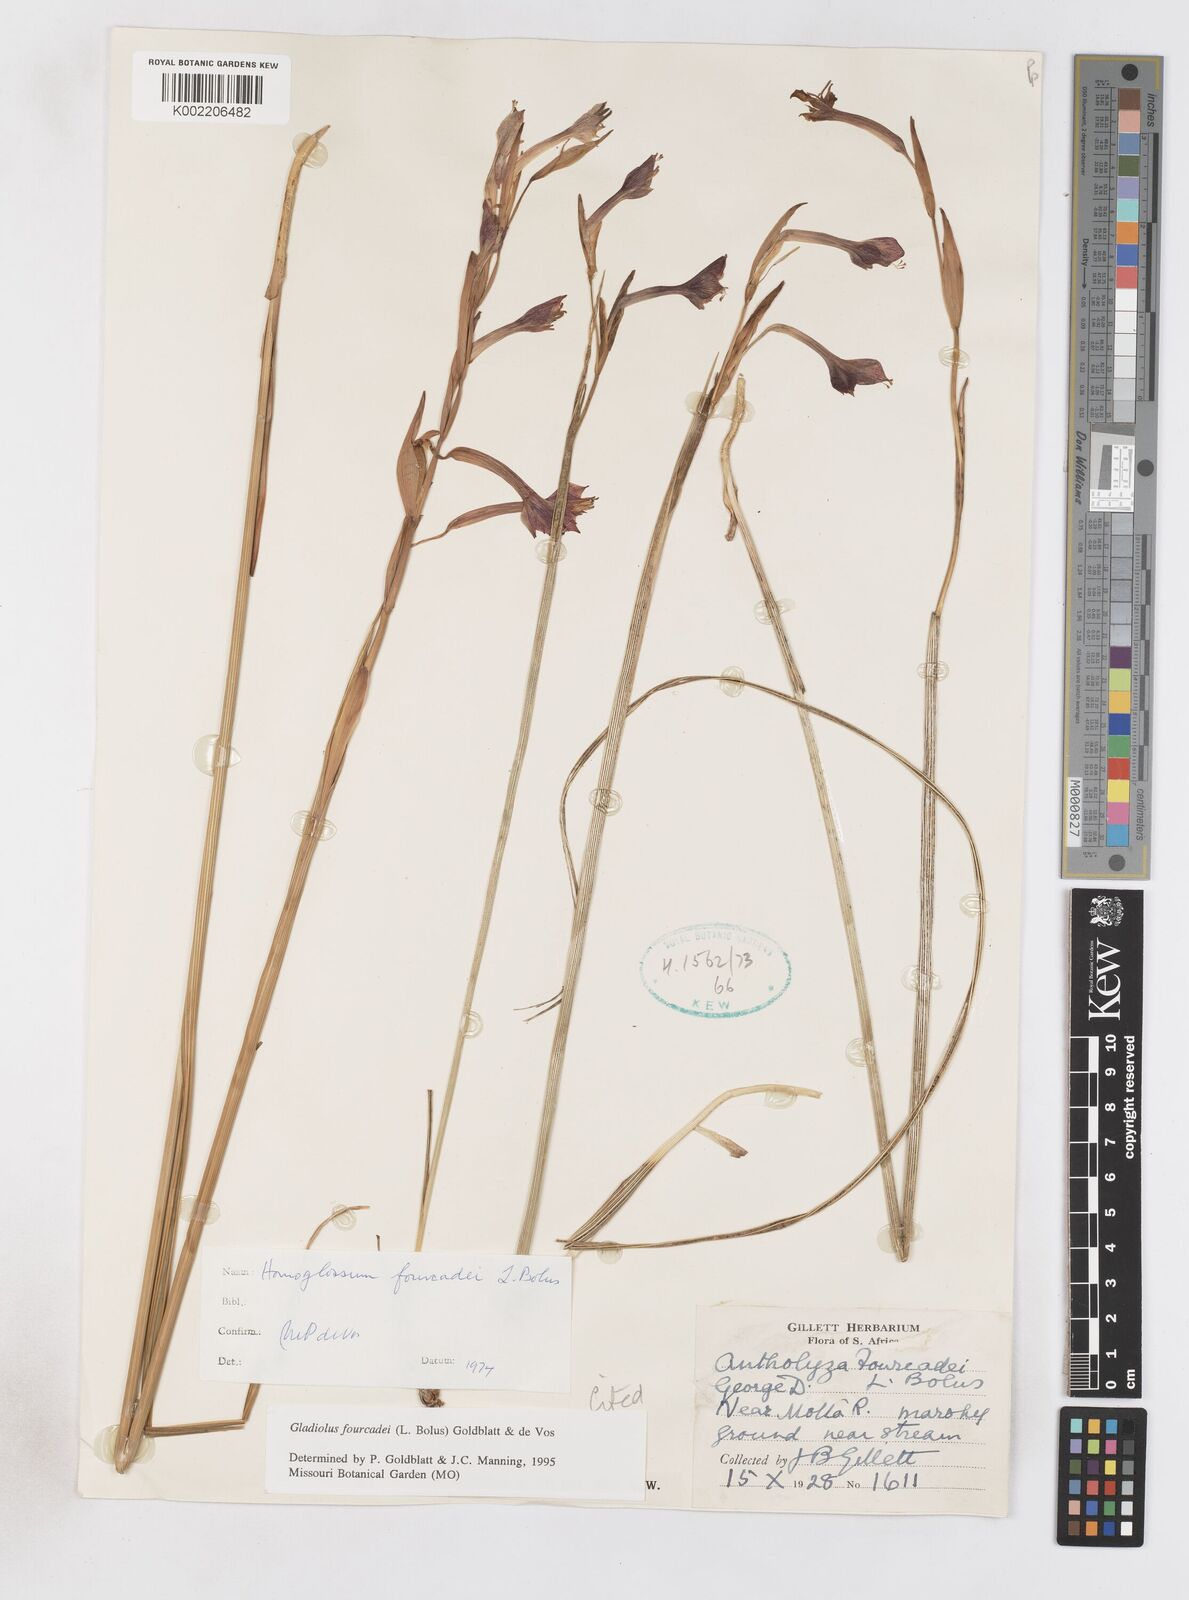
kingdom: Plantae
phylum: Tracheophyta
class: Liliopsida
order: Asparagales
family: Iridaceae
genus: Gladiolus
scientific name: Gladiolus fourcadei
